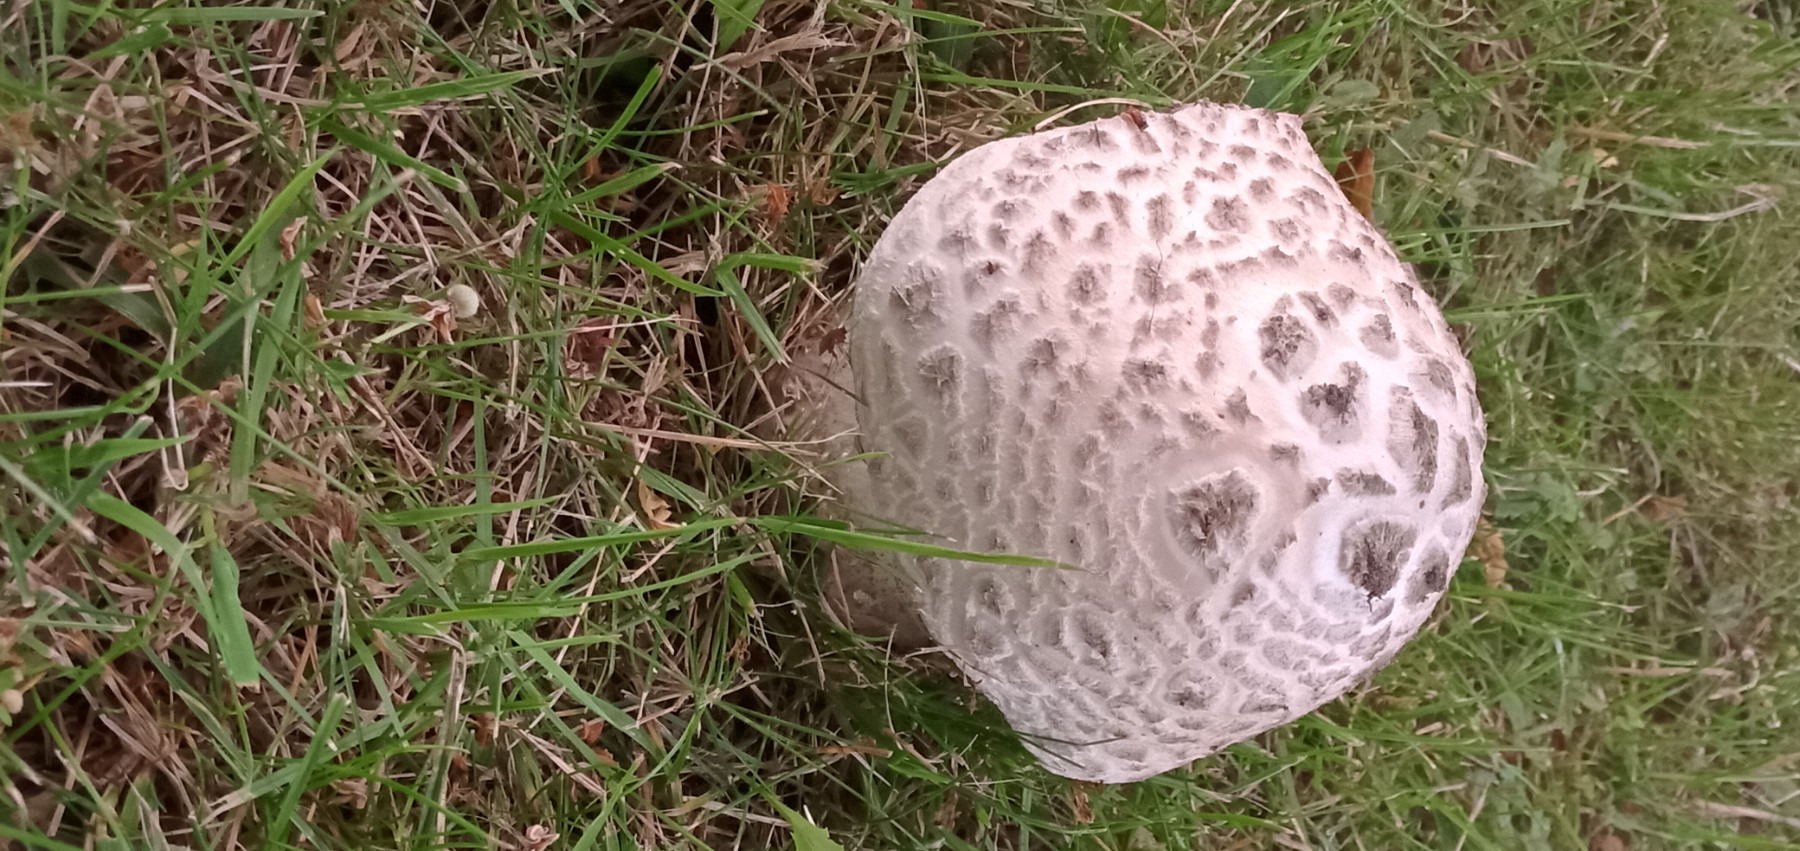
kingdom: Fungi
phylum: Basidiomycota
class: Agaricomycetes
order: Agaricales
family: Amanitaceae
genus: Amanita
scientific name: Amanita
